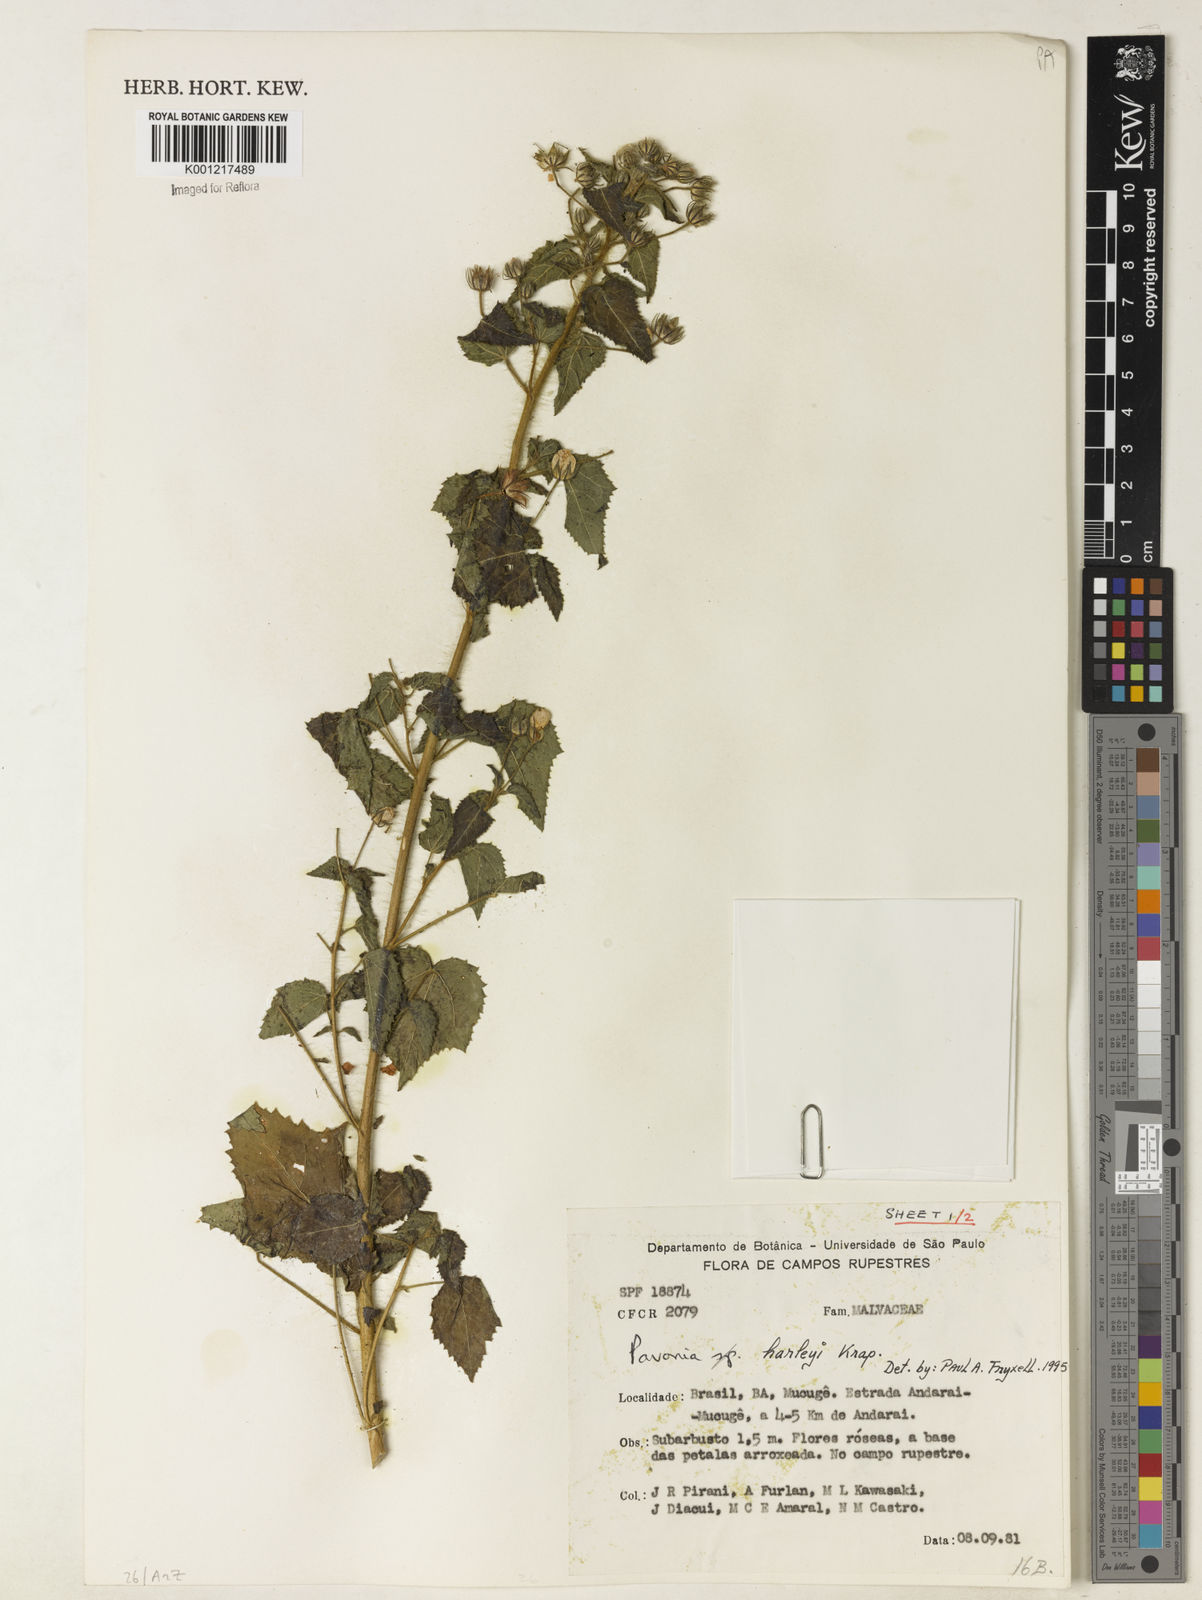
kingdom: Plantae
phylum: Tracheophyta
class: Magnoliopsida
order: Malvales
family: Malvaceae
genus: Pavonia
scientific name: Pavonia harleyi
